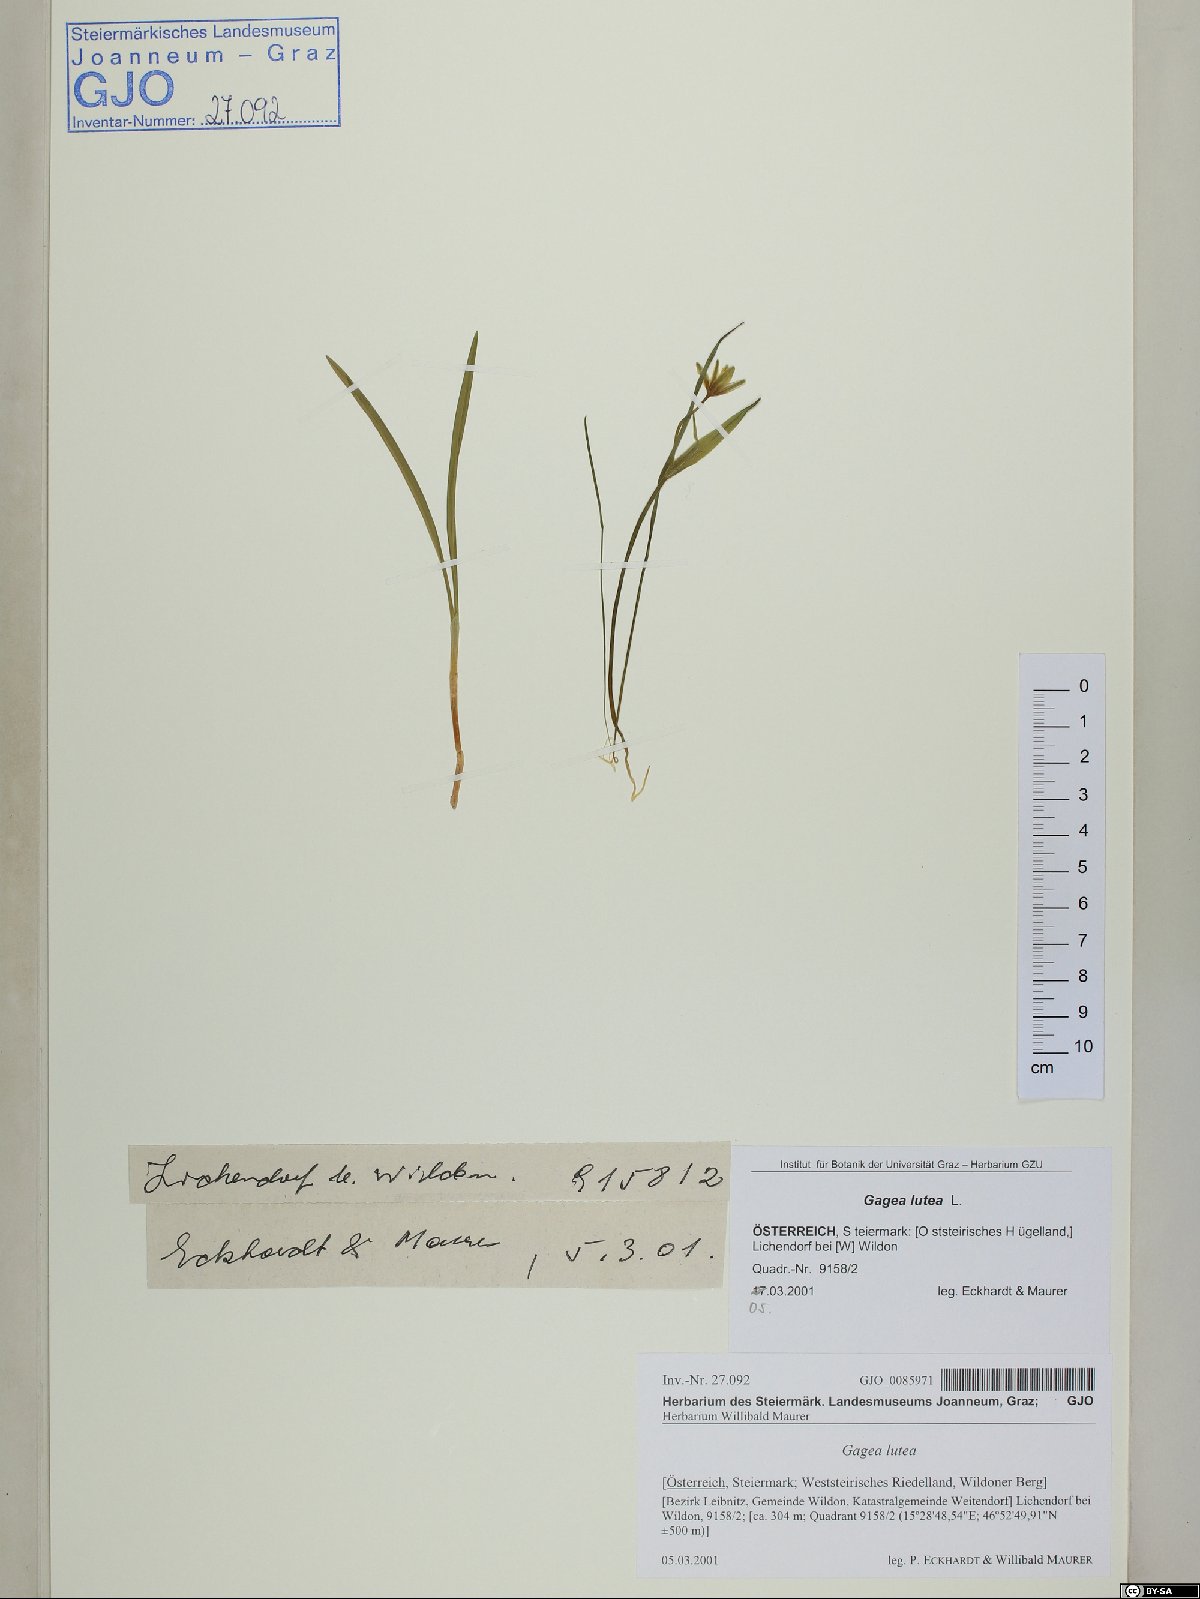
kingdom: Plantae
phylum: Tracheophyta
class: Liliopsida
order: Liliales
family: Liliaceae
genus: Gagea
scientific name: Gagea lutea
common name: Yellow star-of-bethlehem
